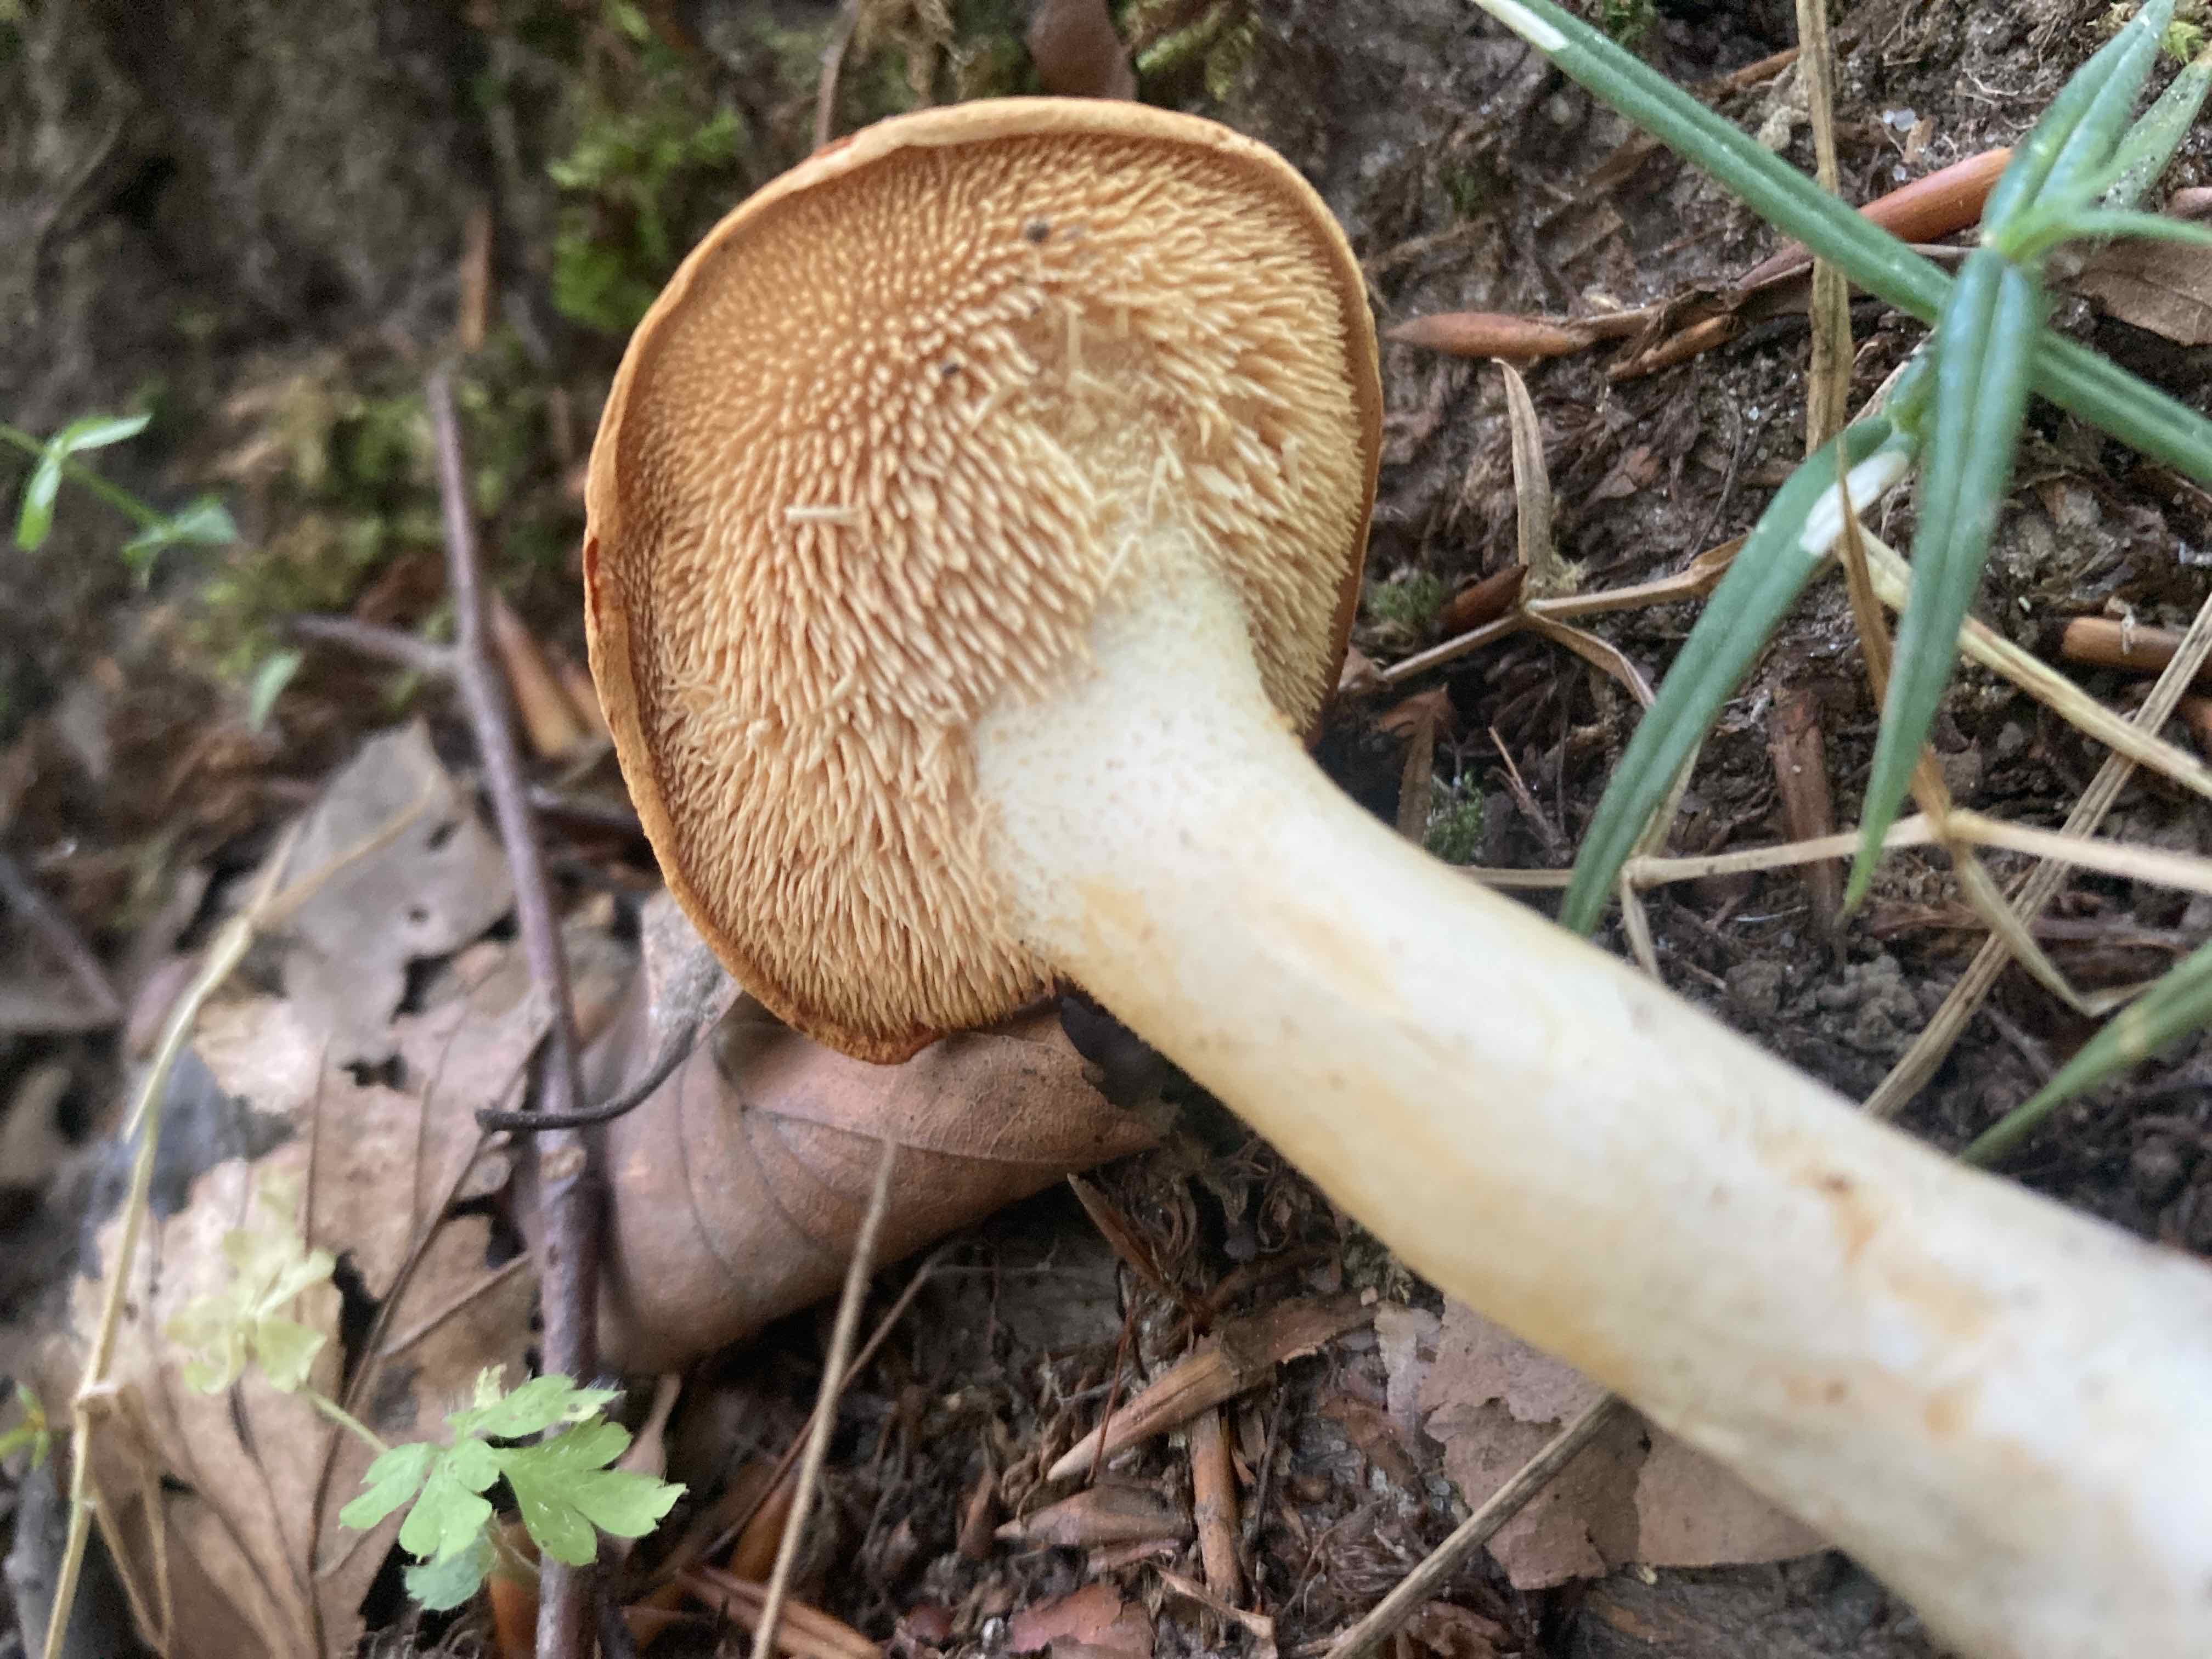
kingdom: Fungi
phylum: Basidiomycota
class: Agaricomycetes
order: Cantharellales
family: Hydnaceae
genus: Hydnum
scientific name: Hydnum rufescens
